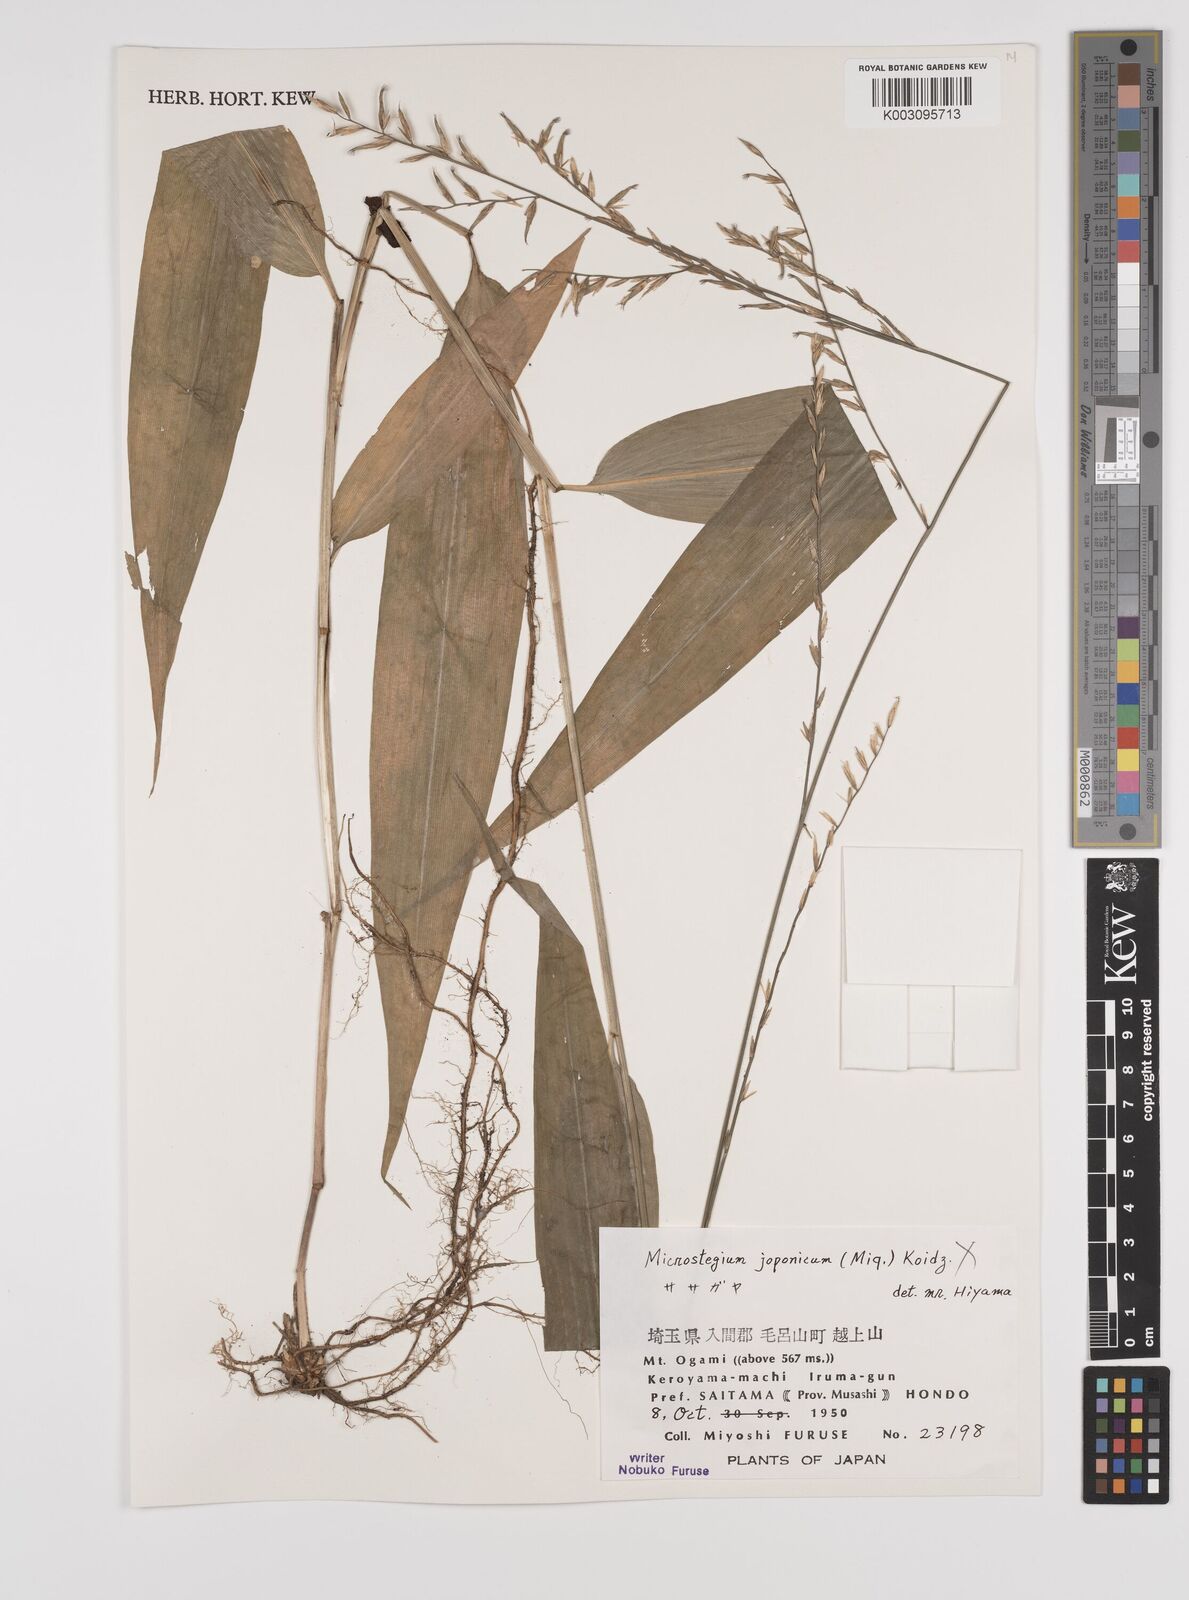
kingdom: Plantae
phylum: Tracheophyta
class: Liliopsida
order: Poales
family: Poaceae
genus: Lophatherum
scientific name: Lophatherum gracile
